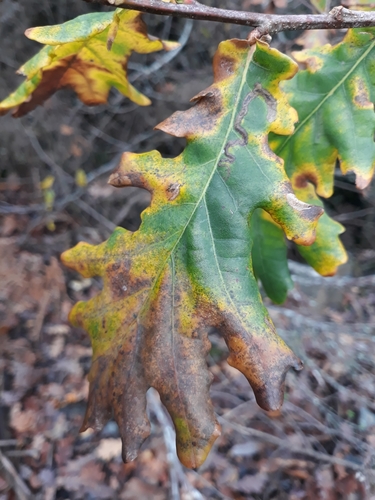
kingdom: Plantae
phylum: Tracheophyta
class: Magnoliopsida
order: Fagales
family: Fagaceae
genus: Quercus
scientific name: Quercus robur
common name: Pedunculate oak
